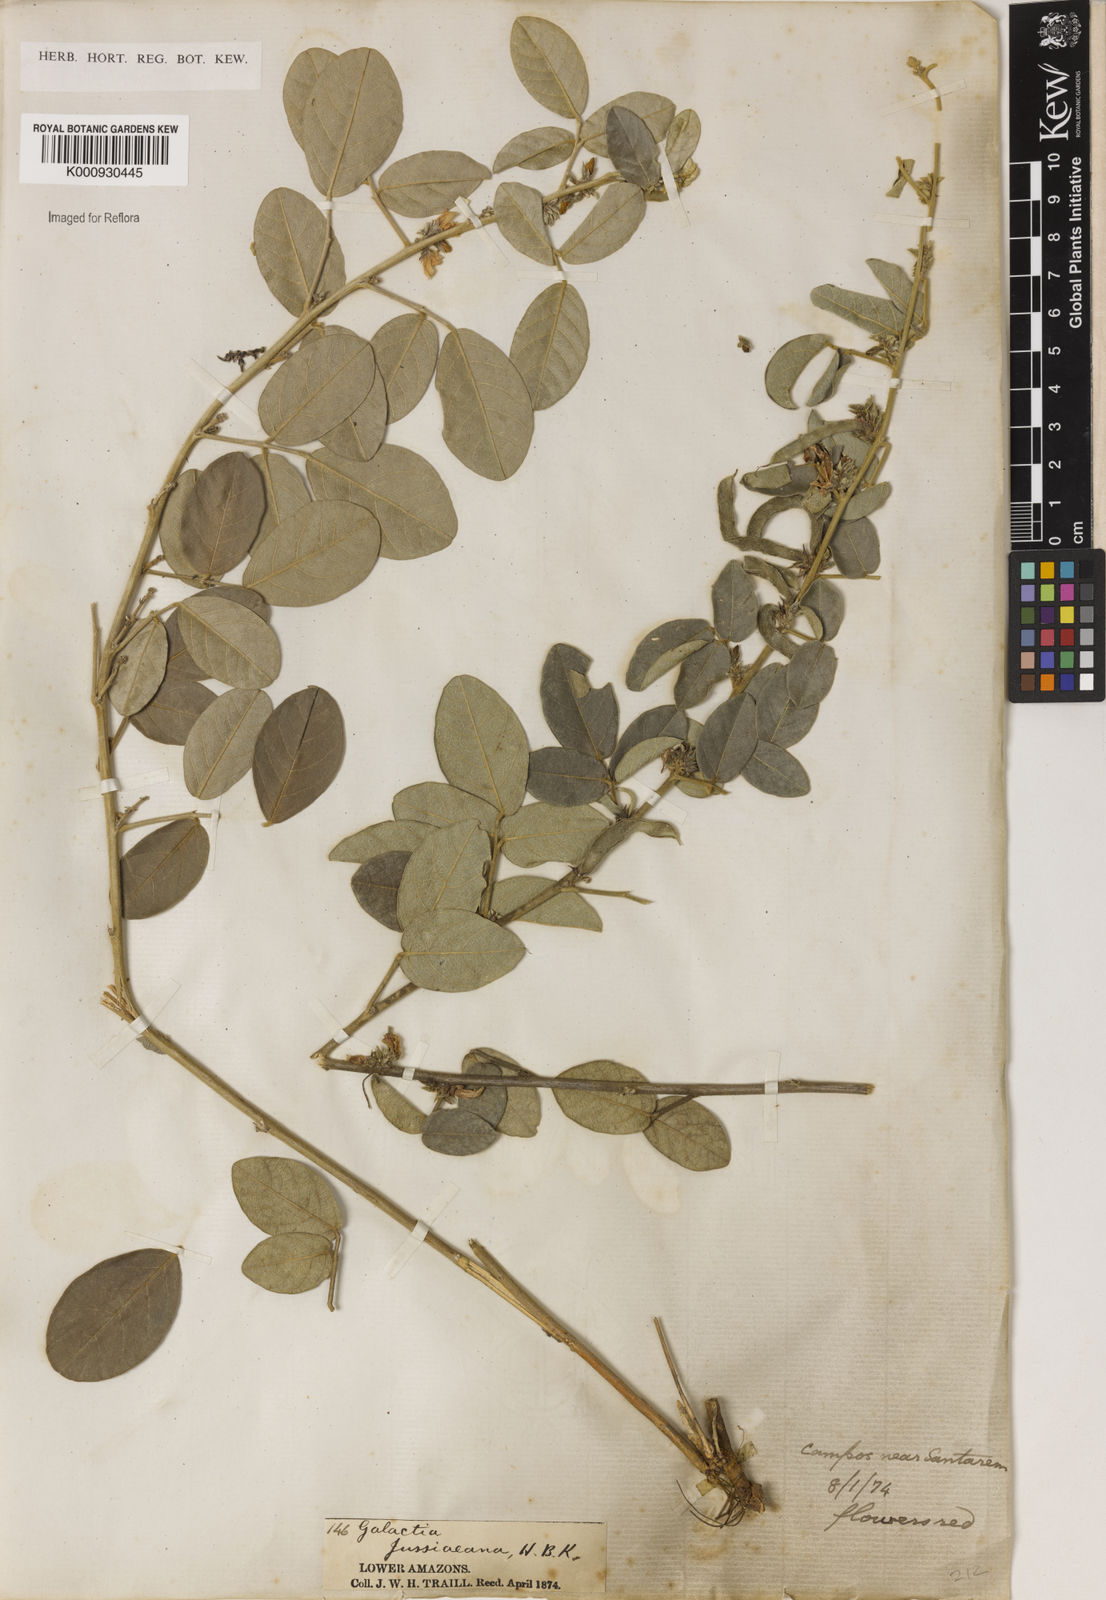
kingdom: Plantae
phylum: Tracheophyta
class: Magnoliopsida
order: Fabales
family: Fabaceae
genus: Galactia
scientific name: Galactia jussiaeana
